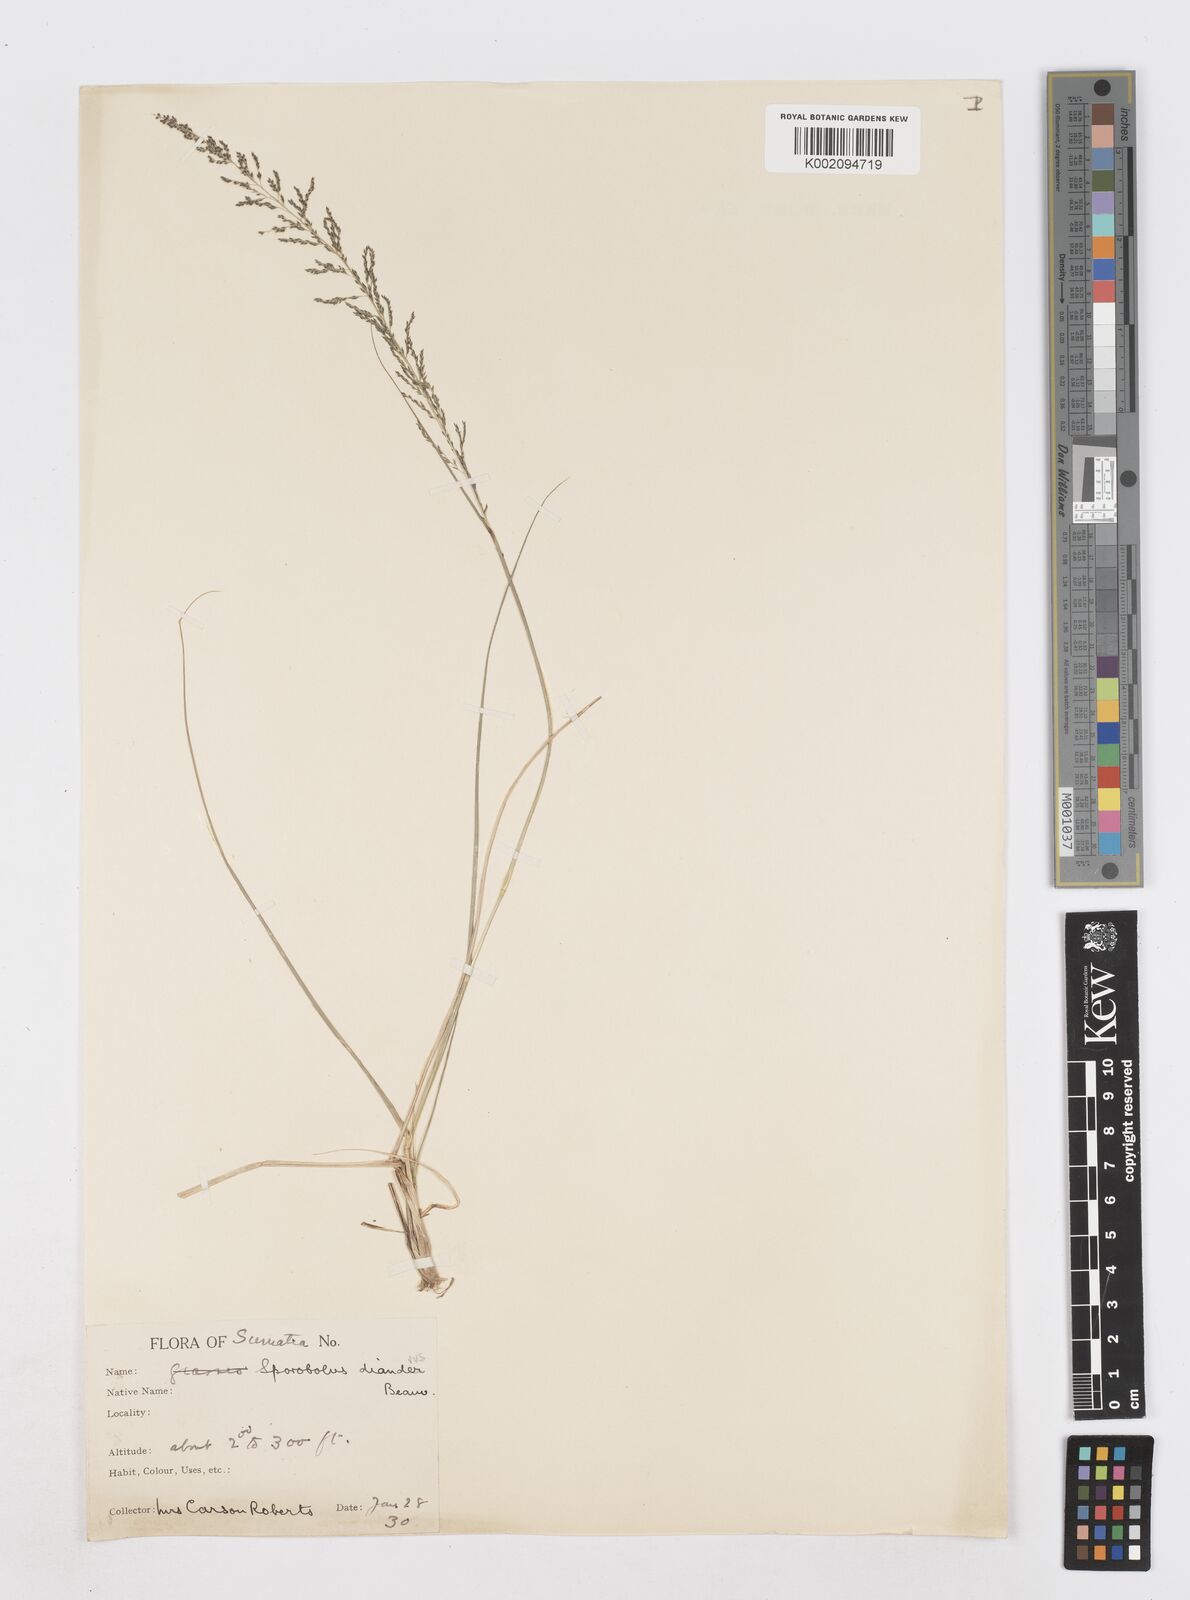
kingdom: Plantae
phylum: Tracheophyta
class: Liliopsida
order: Poales
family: Poaceae
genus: Sporobolus
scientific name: Sporobolus diandrus
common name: Tussock dropseed
